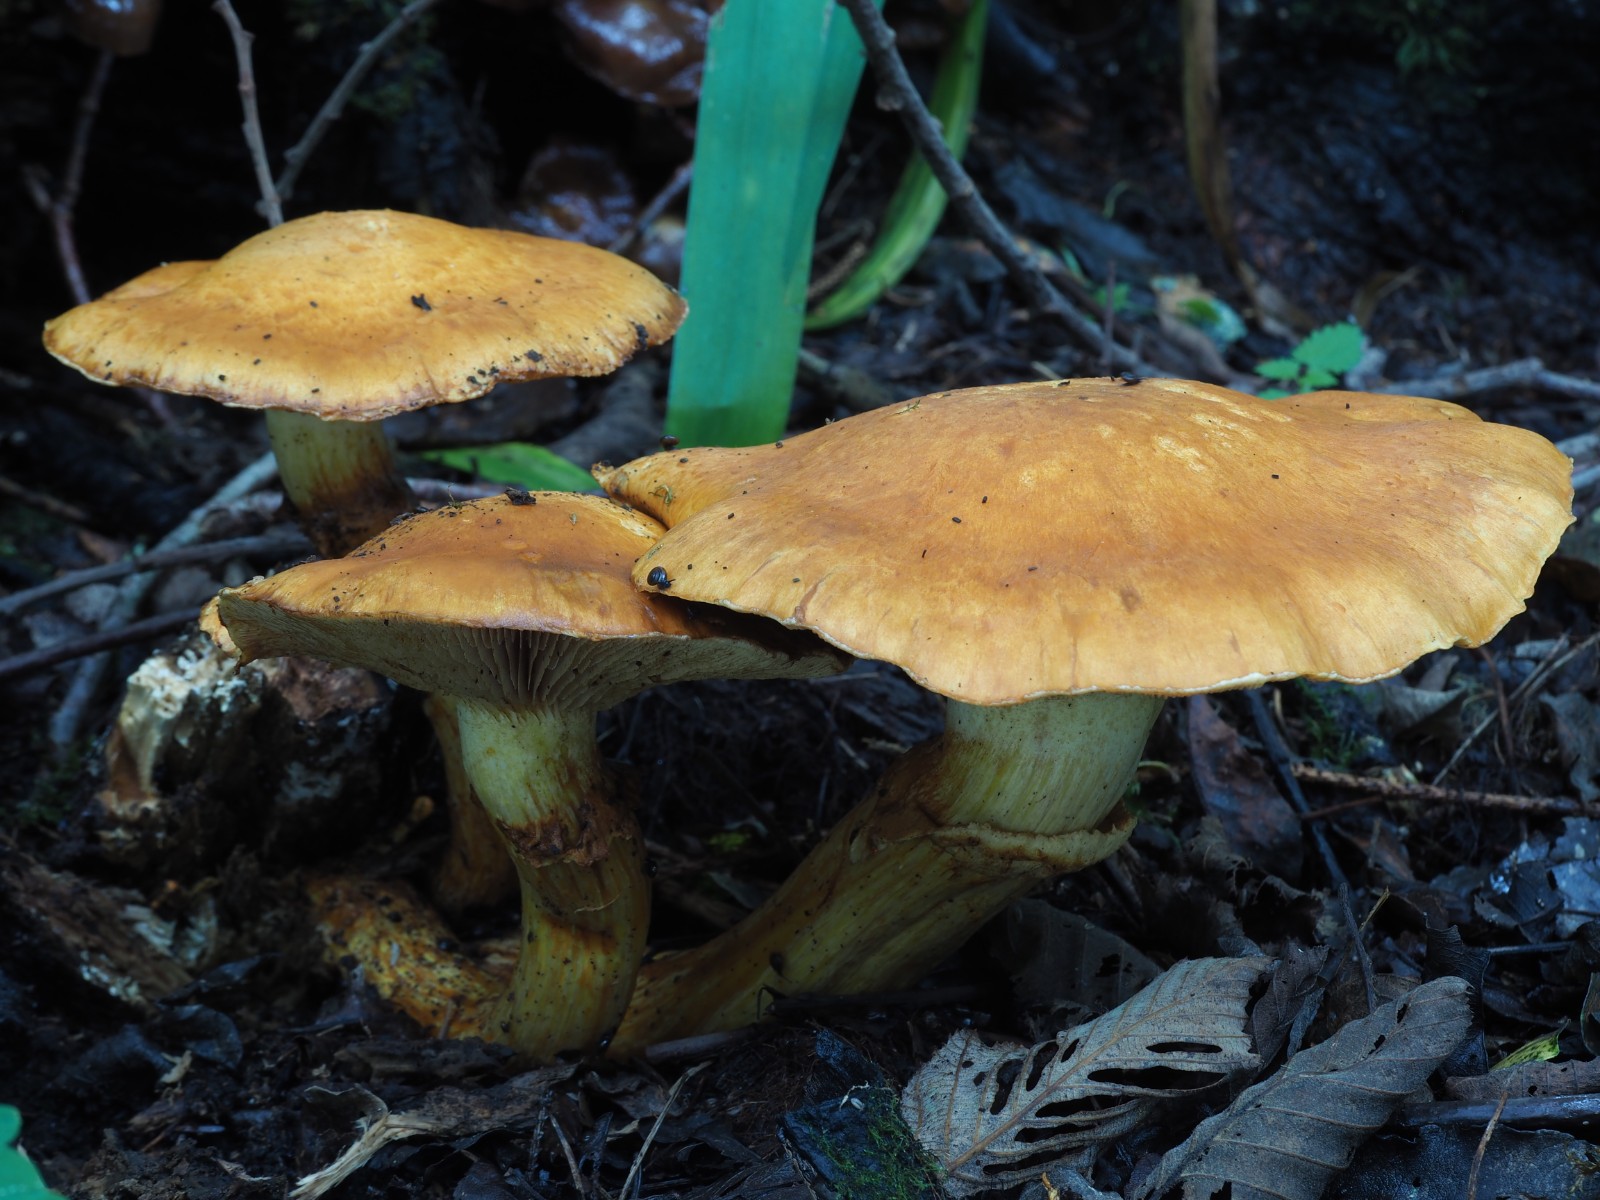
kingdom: Fungi
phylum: Basidiomycota
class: Agaricomycetes
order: Agaricales
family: Hymenogastraceae
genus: Gymnopilus
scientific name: Gymnopilus spectabilis
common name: fibret flammehat
